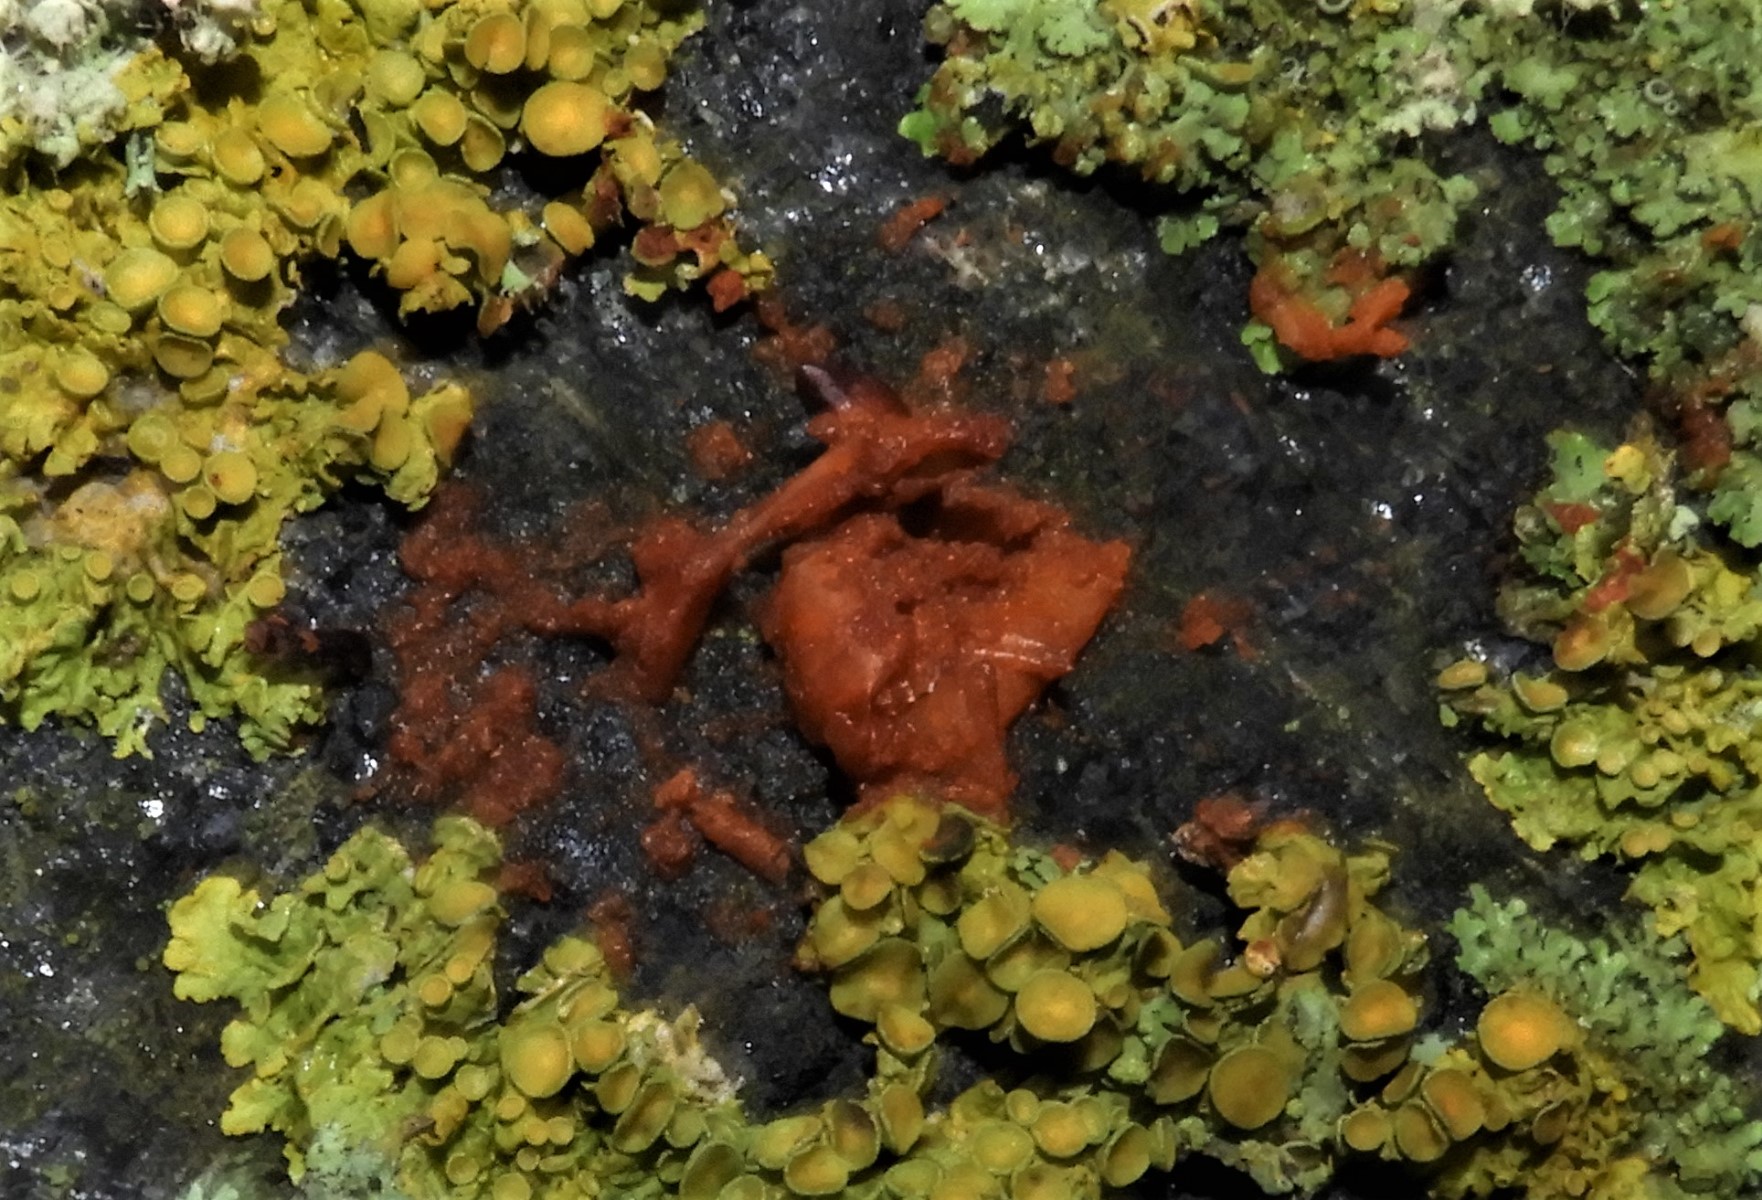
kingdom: Fungi
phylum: Ascomycota
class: Lecanoromycetes
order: Teloschistales
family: Teloschistaceae
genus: Xanthoria
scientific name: Xanthoria parietina
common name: almindelig væggelav
